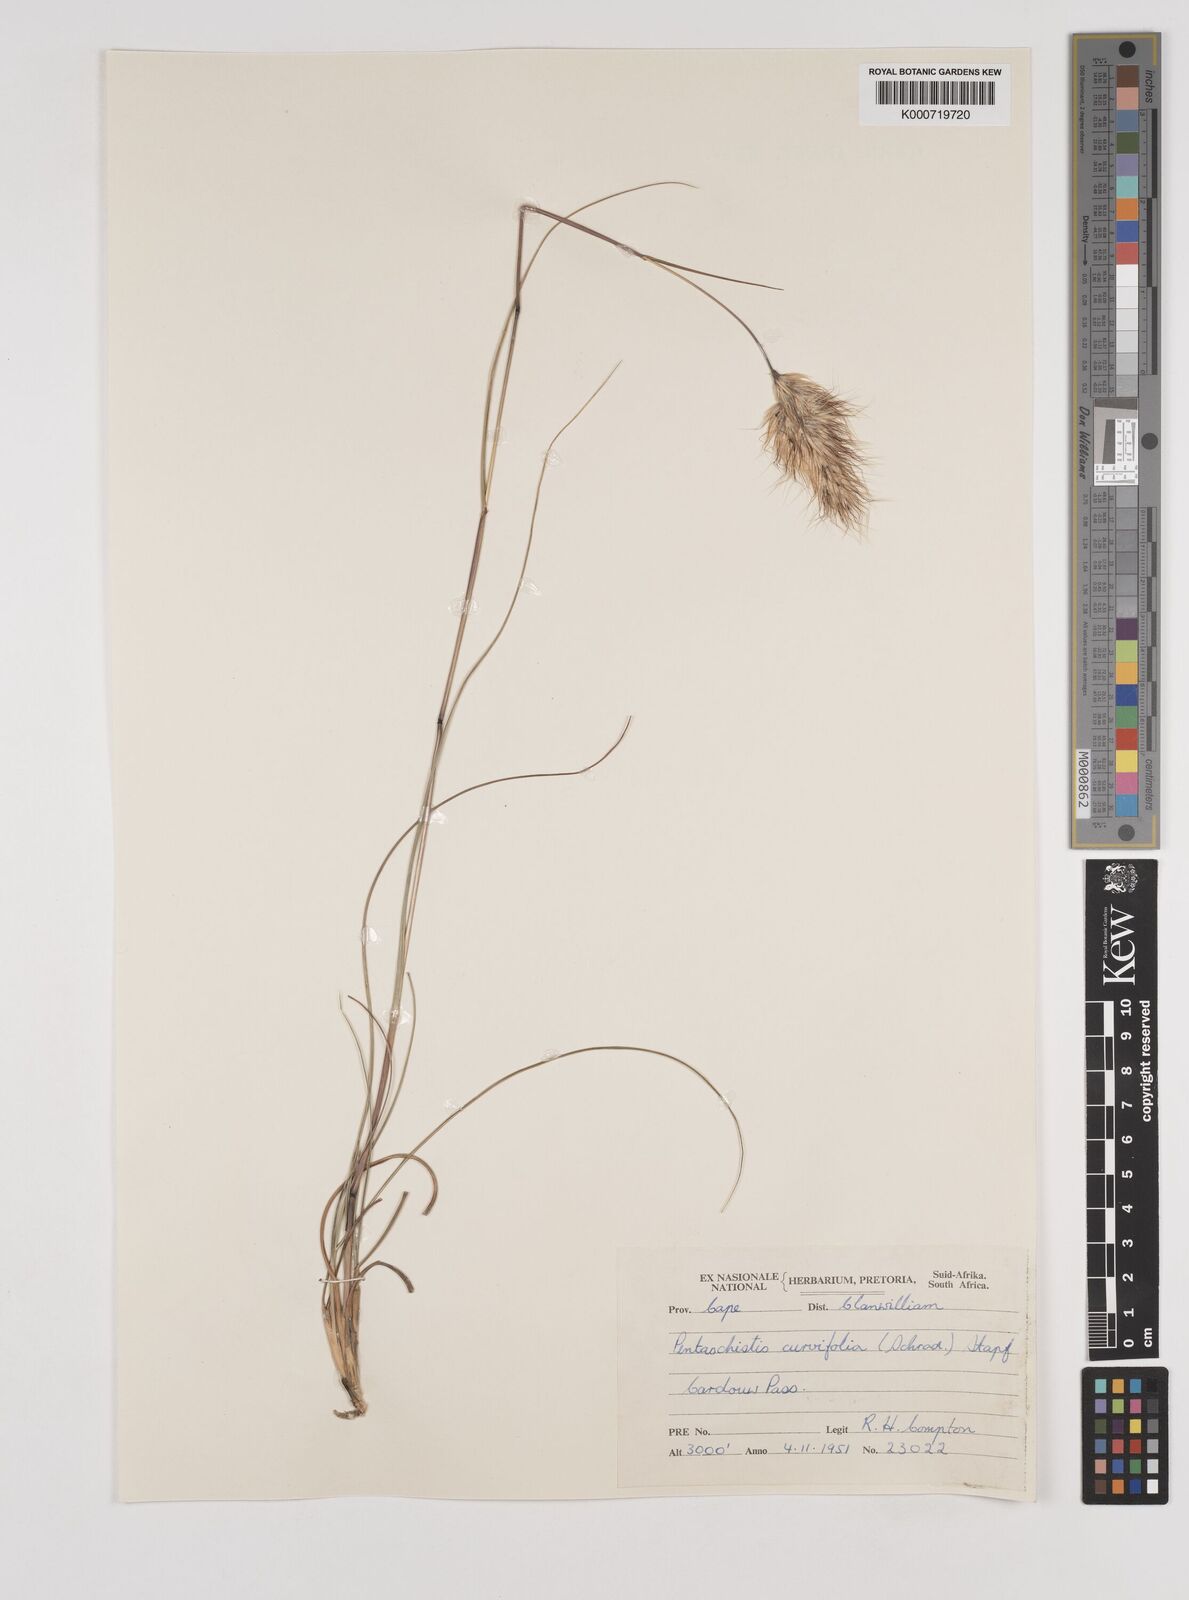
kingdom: Plantae
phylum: Tracheophyta
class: Liliopsida
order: Poales
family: Poaceae
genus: Pentameris
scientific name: Pentameris curvifolia
